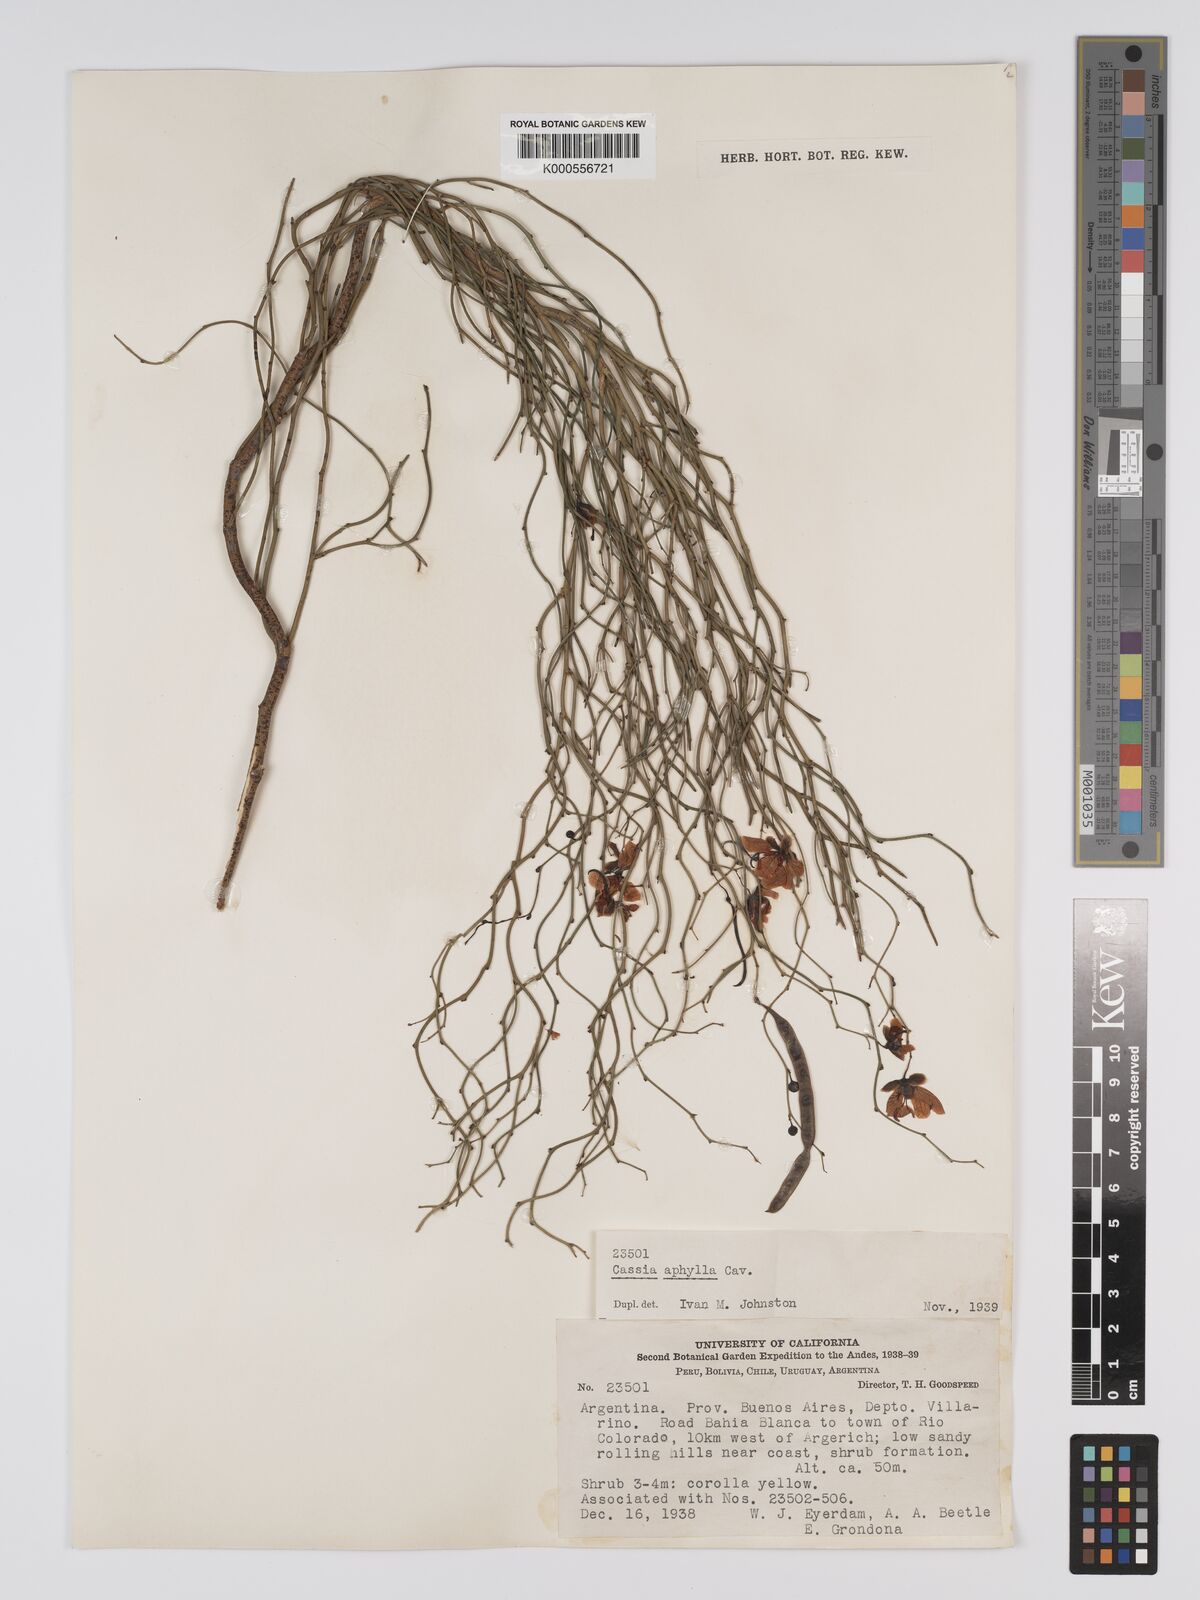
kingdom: Plantae
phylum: Tracheophyta
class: Magnoliopsida
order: Fabales
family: Fabaceae
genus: Senna
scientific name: Senna aphylla
